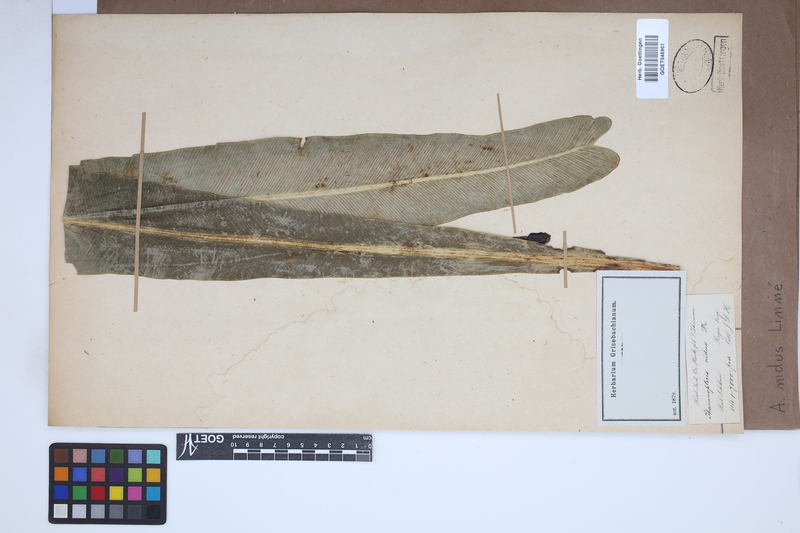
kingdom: Plantae
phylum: Tracheophyta
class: Polypodiopsida
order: Polypodiales
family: Aspleniaceae
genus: Asplenium
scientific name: Asplenium nidus
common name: Bird's-nest fern
